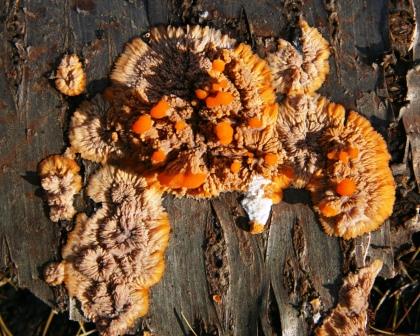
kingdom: Fungi
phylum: Basidiomycota
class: Agaricomycetes
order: Polyporales
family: Meruliaceae
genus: Phlebia
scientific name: Phlebia radiata
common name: stråle-åresvamp
